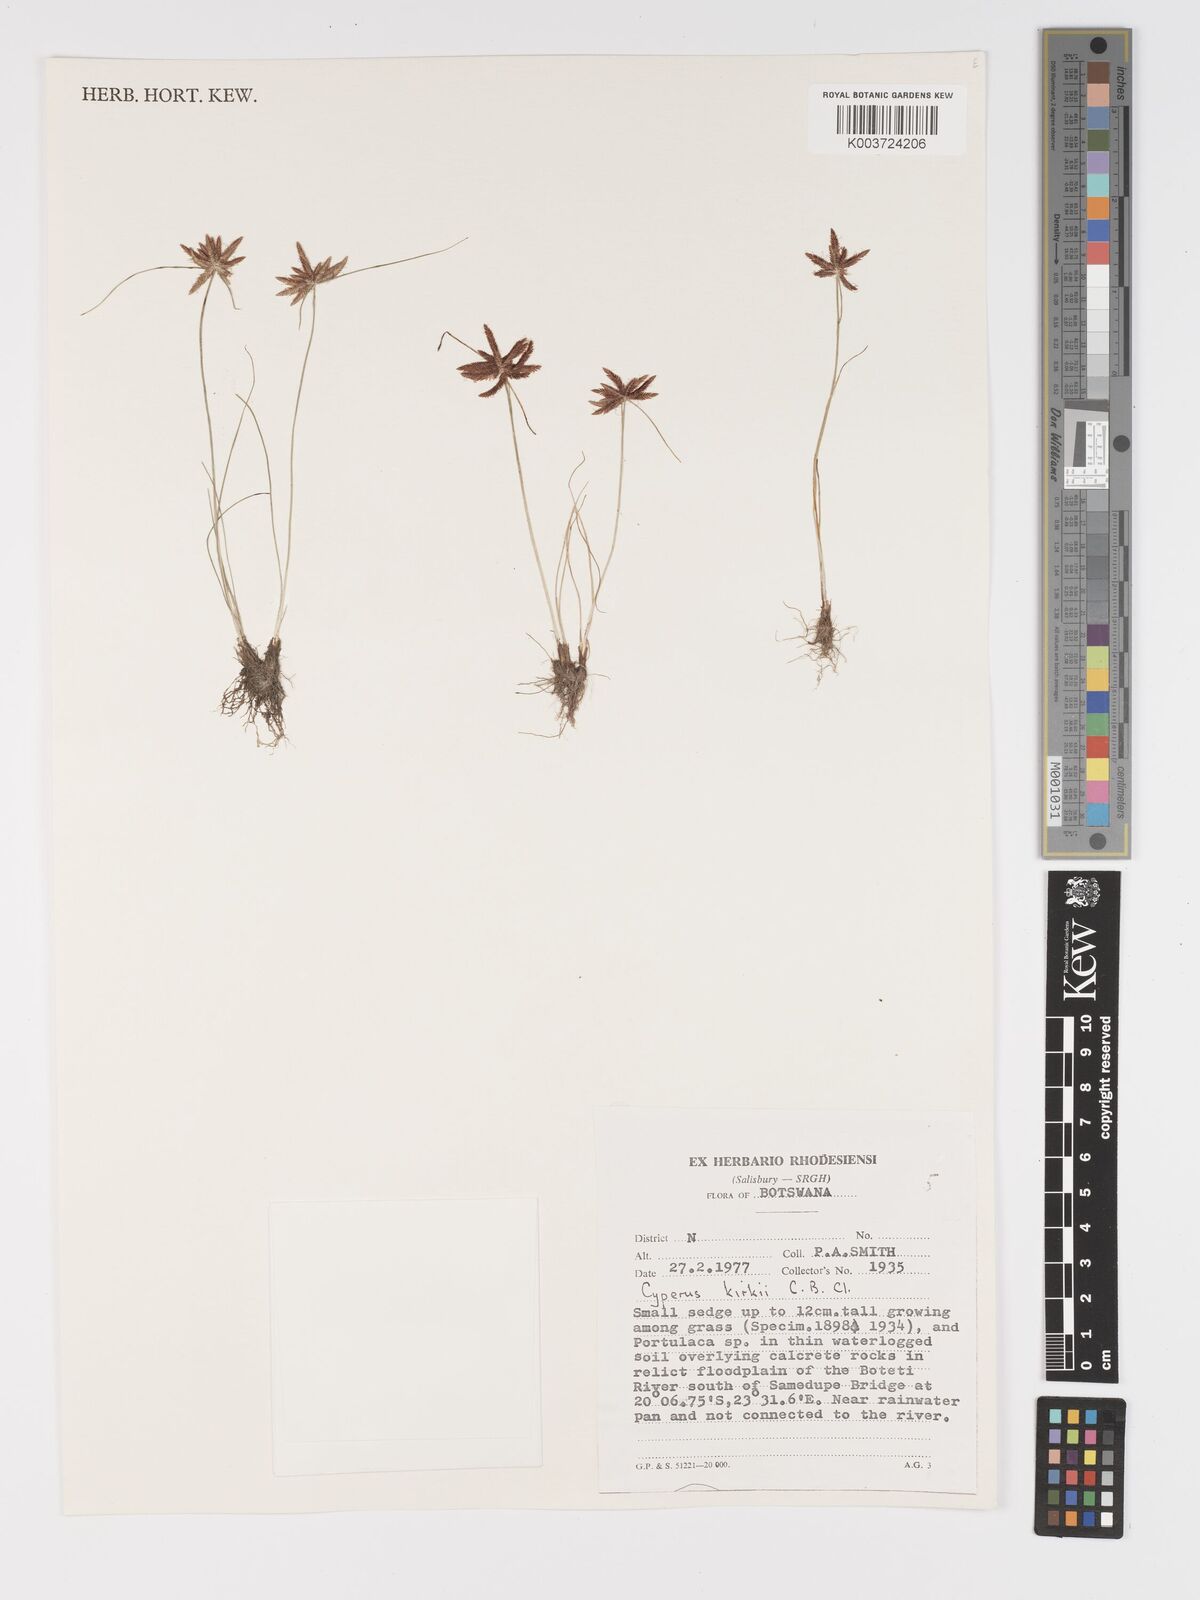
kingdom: Plantae
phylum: Tracheophyta
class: Liliopsida
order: Poales
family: Cyperaceae
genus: Cyperus
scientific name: Cyperus semitrifidus
